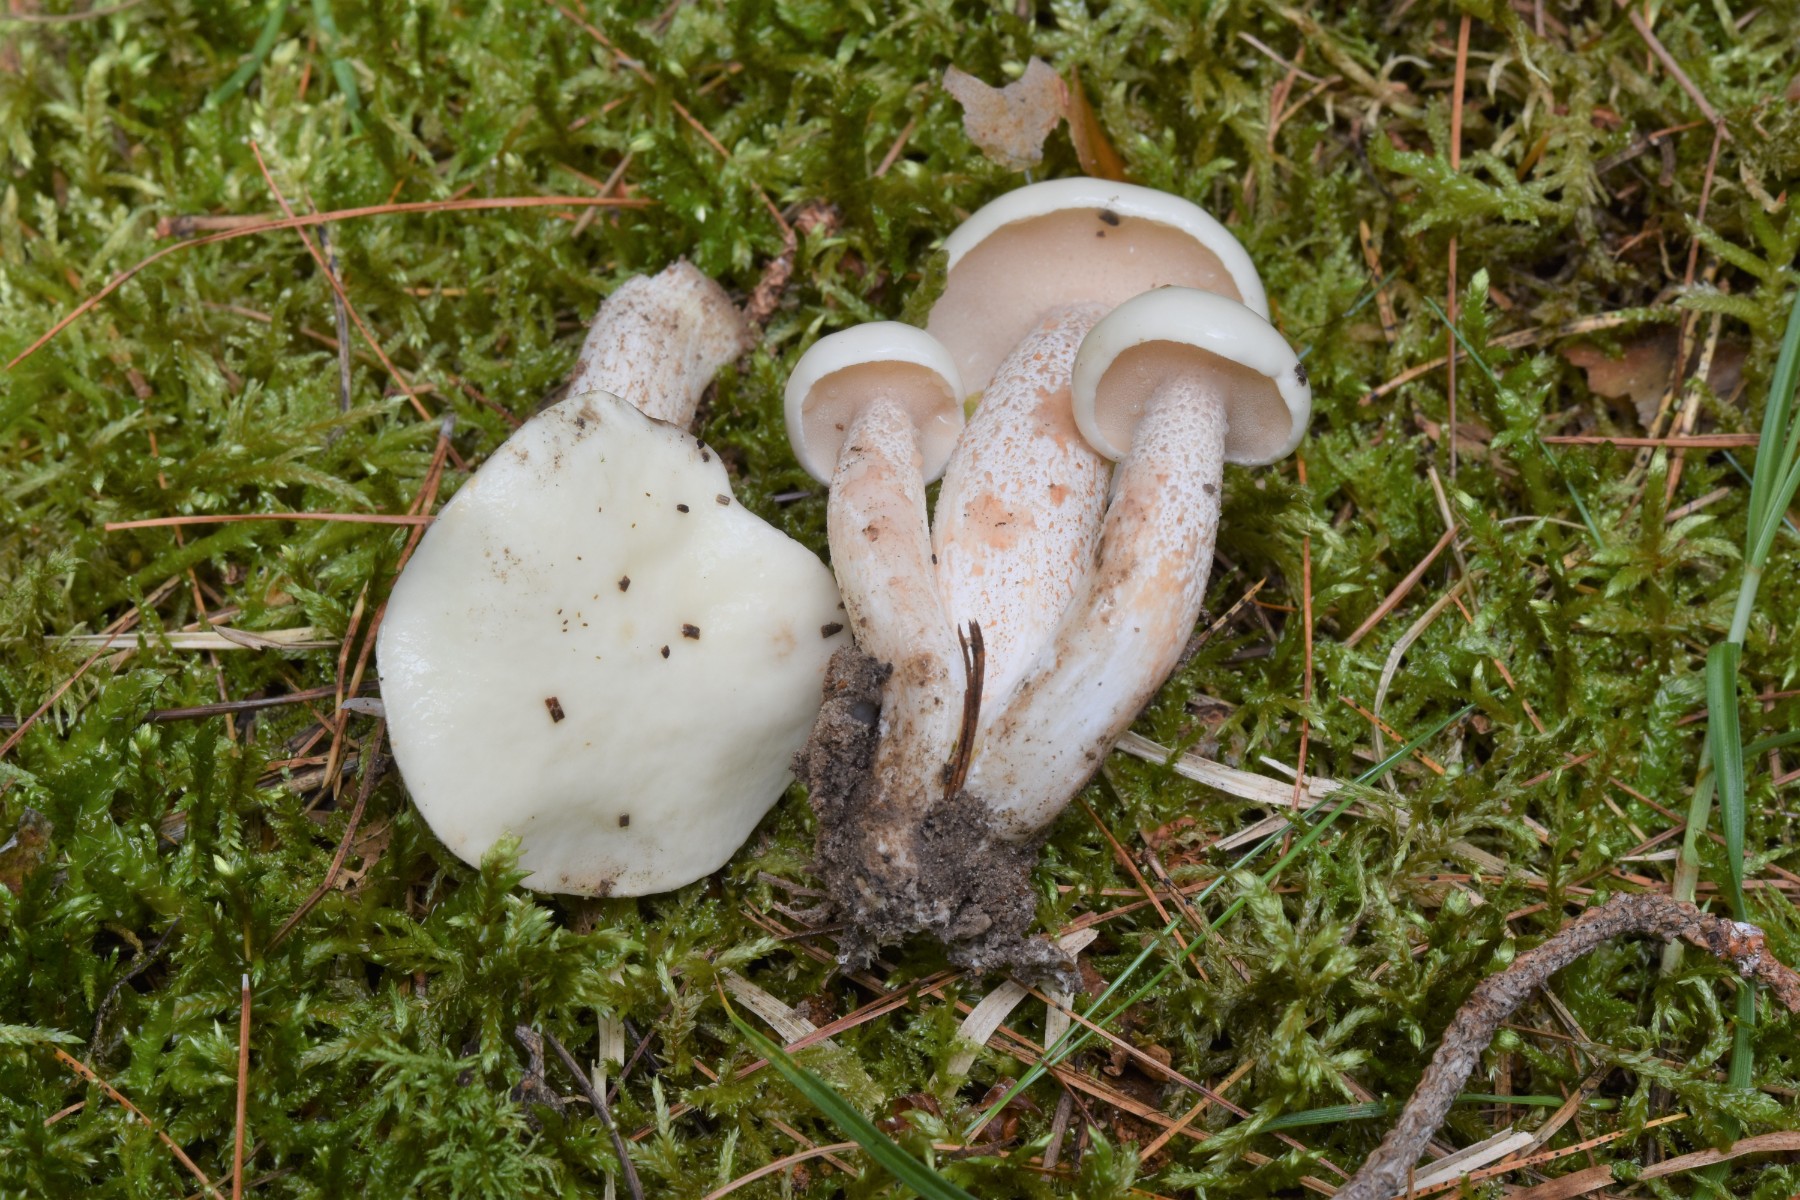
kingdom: Fungi
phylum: Basidiomycota
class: Agaricomycetes
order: Boletales
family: Suillaceae
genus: Suillus
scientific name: Suillus placidus
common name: elfenbens-slimrørhat
